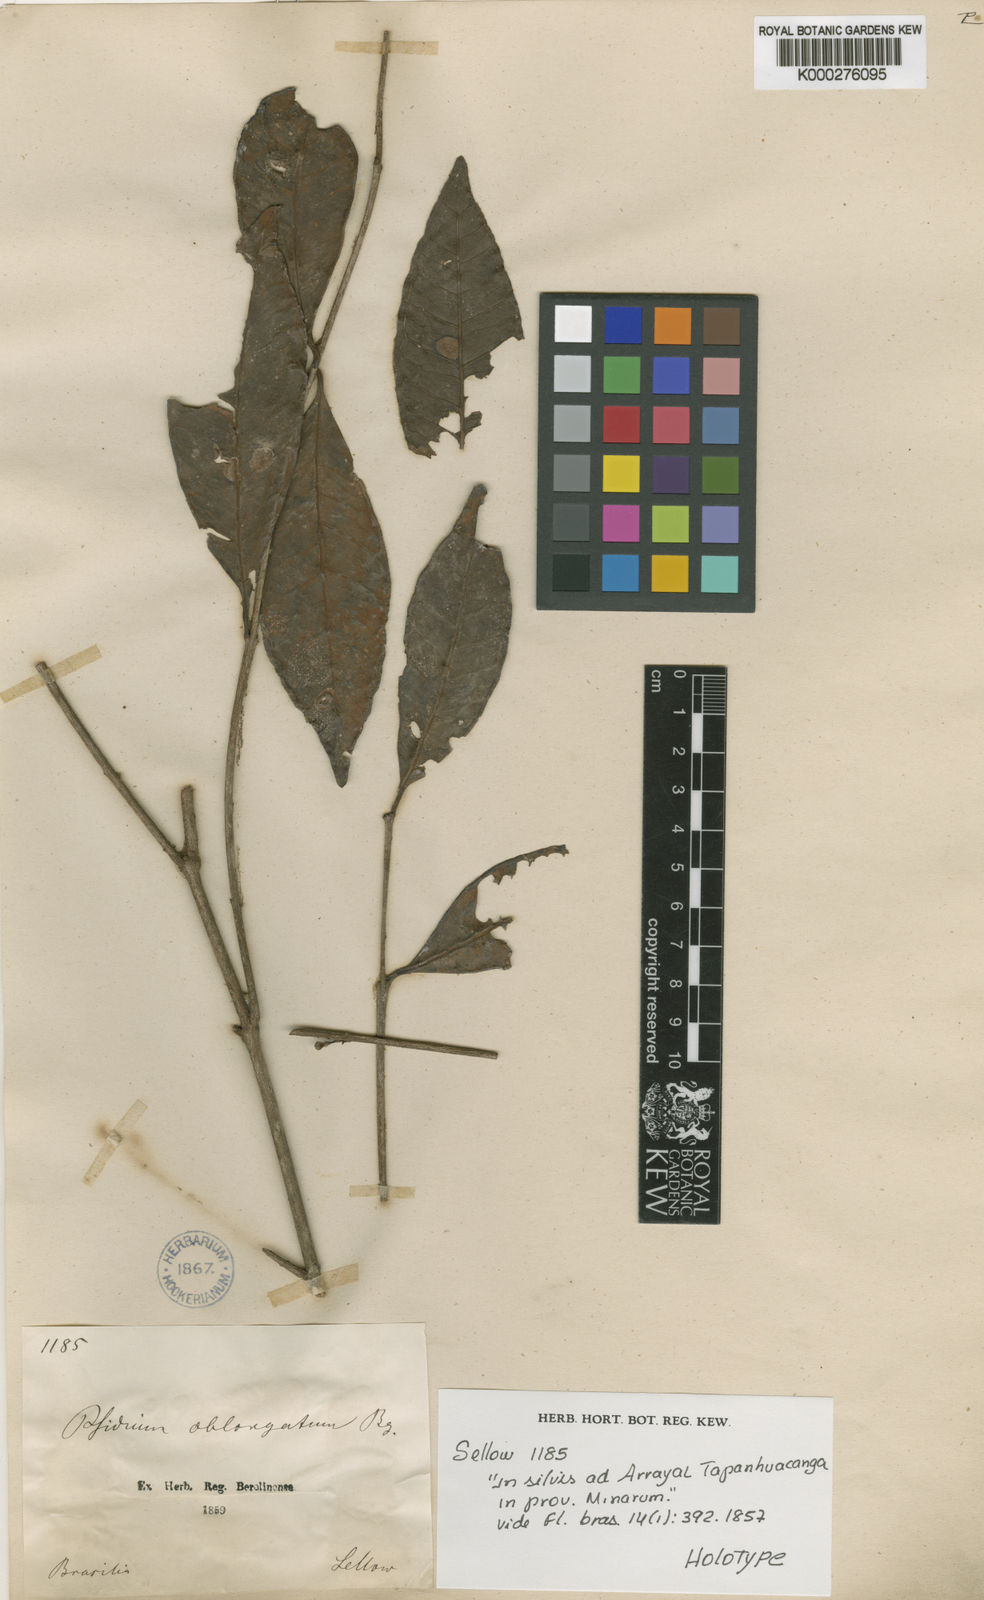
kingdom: Plantae
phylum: Tracheophyta
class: Magnoliopsida
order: Myrtales
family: Myrtaceae
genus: Psidium
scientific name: Psidium oblongatum
